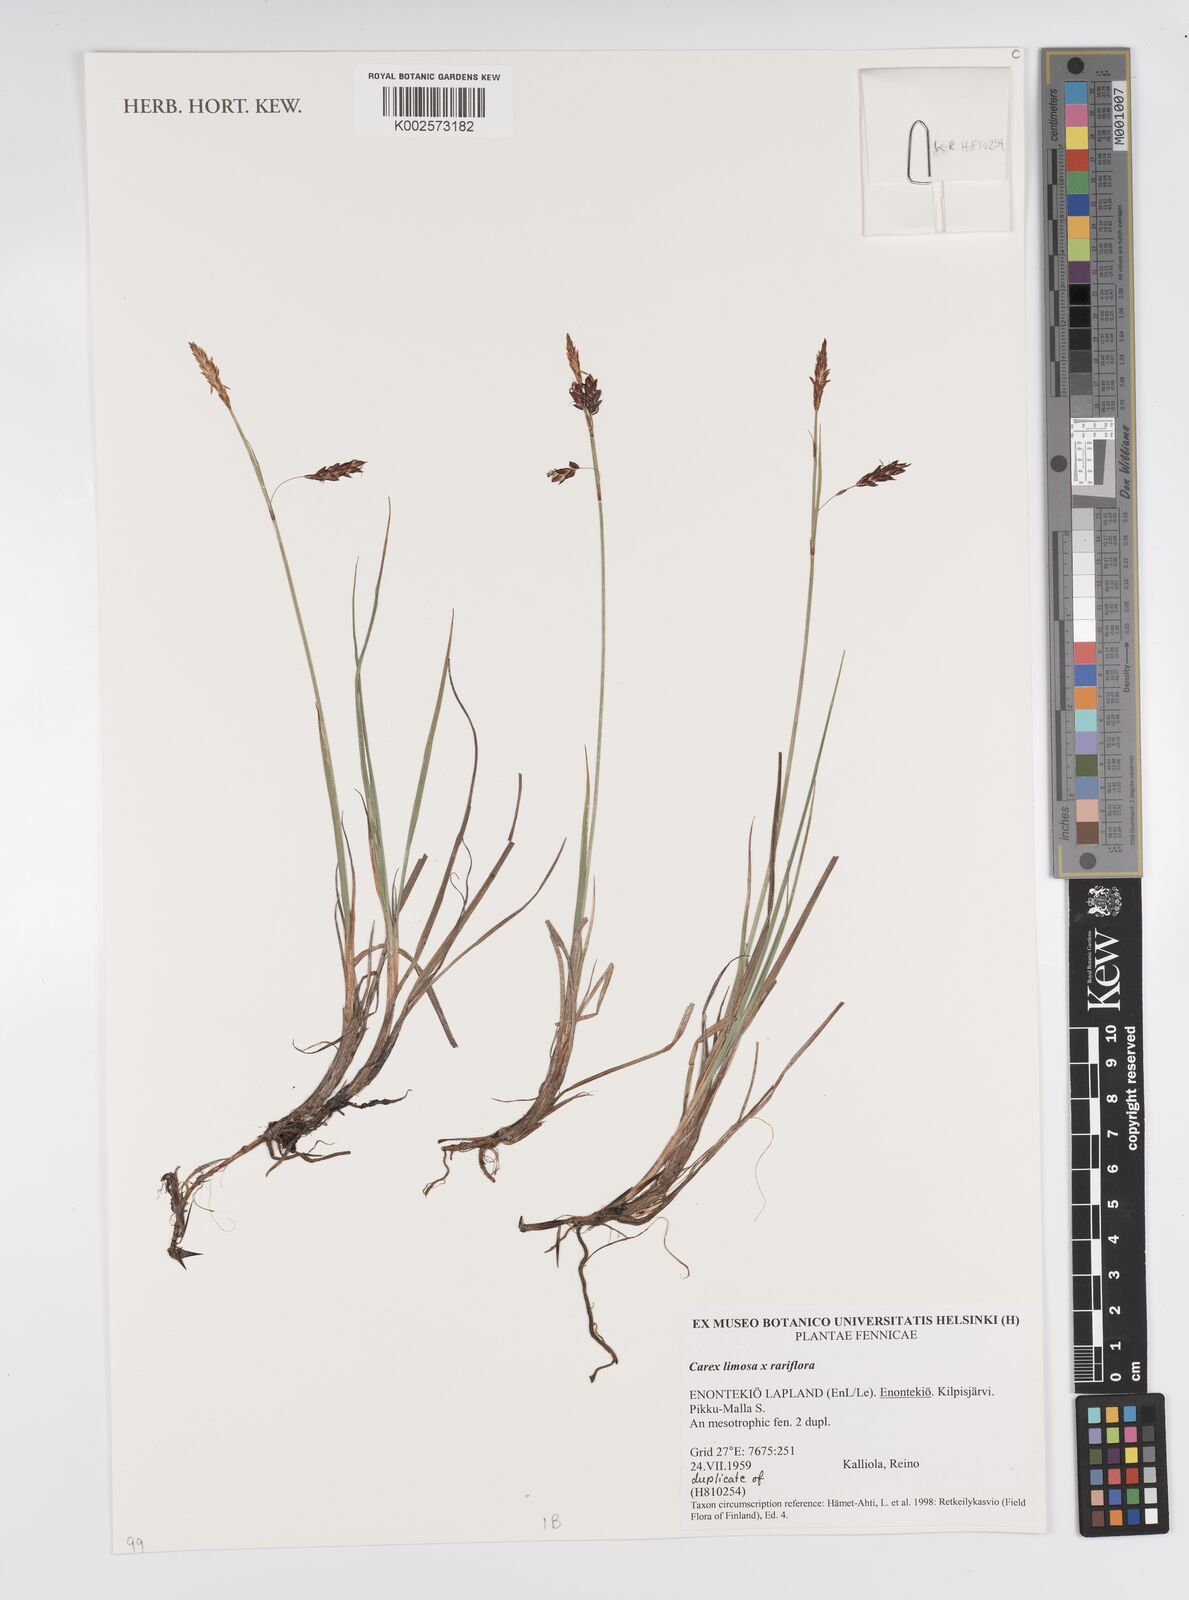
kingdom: Plantae
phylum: Tracheophyta
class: Liliopsida
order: Poales
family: Cyperaceae
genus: Carex
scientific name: Carex
